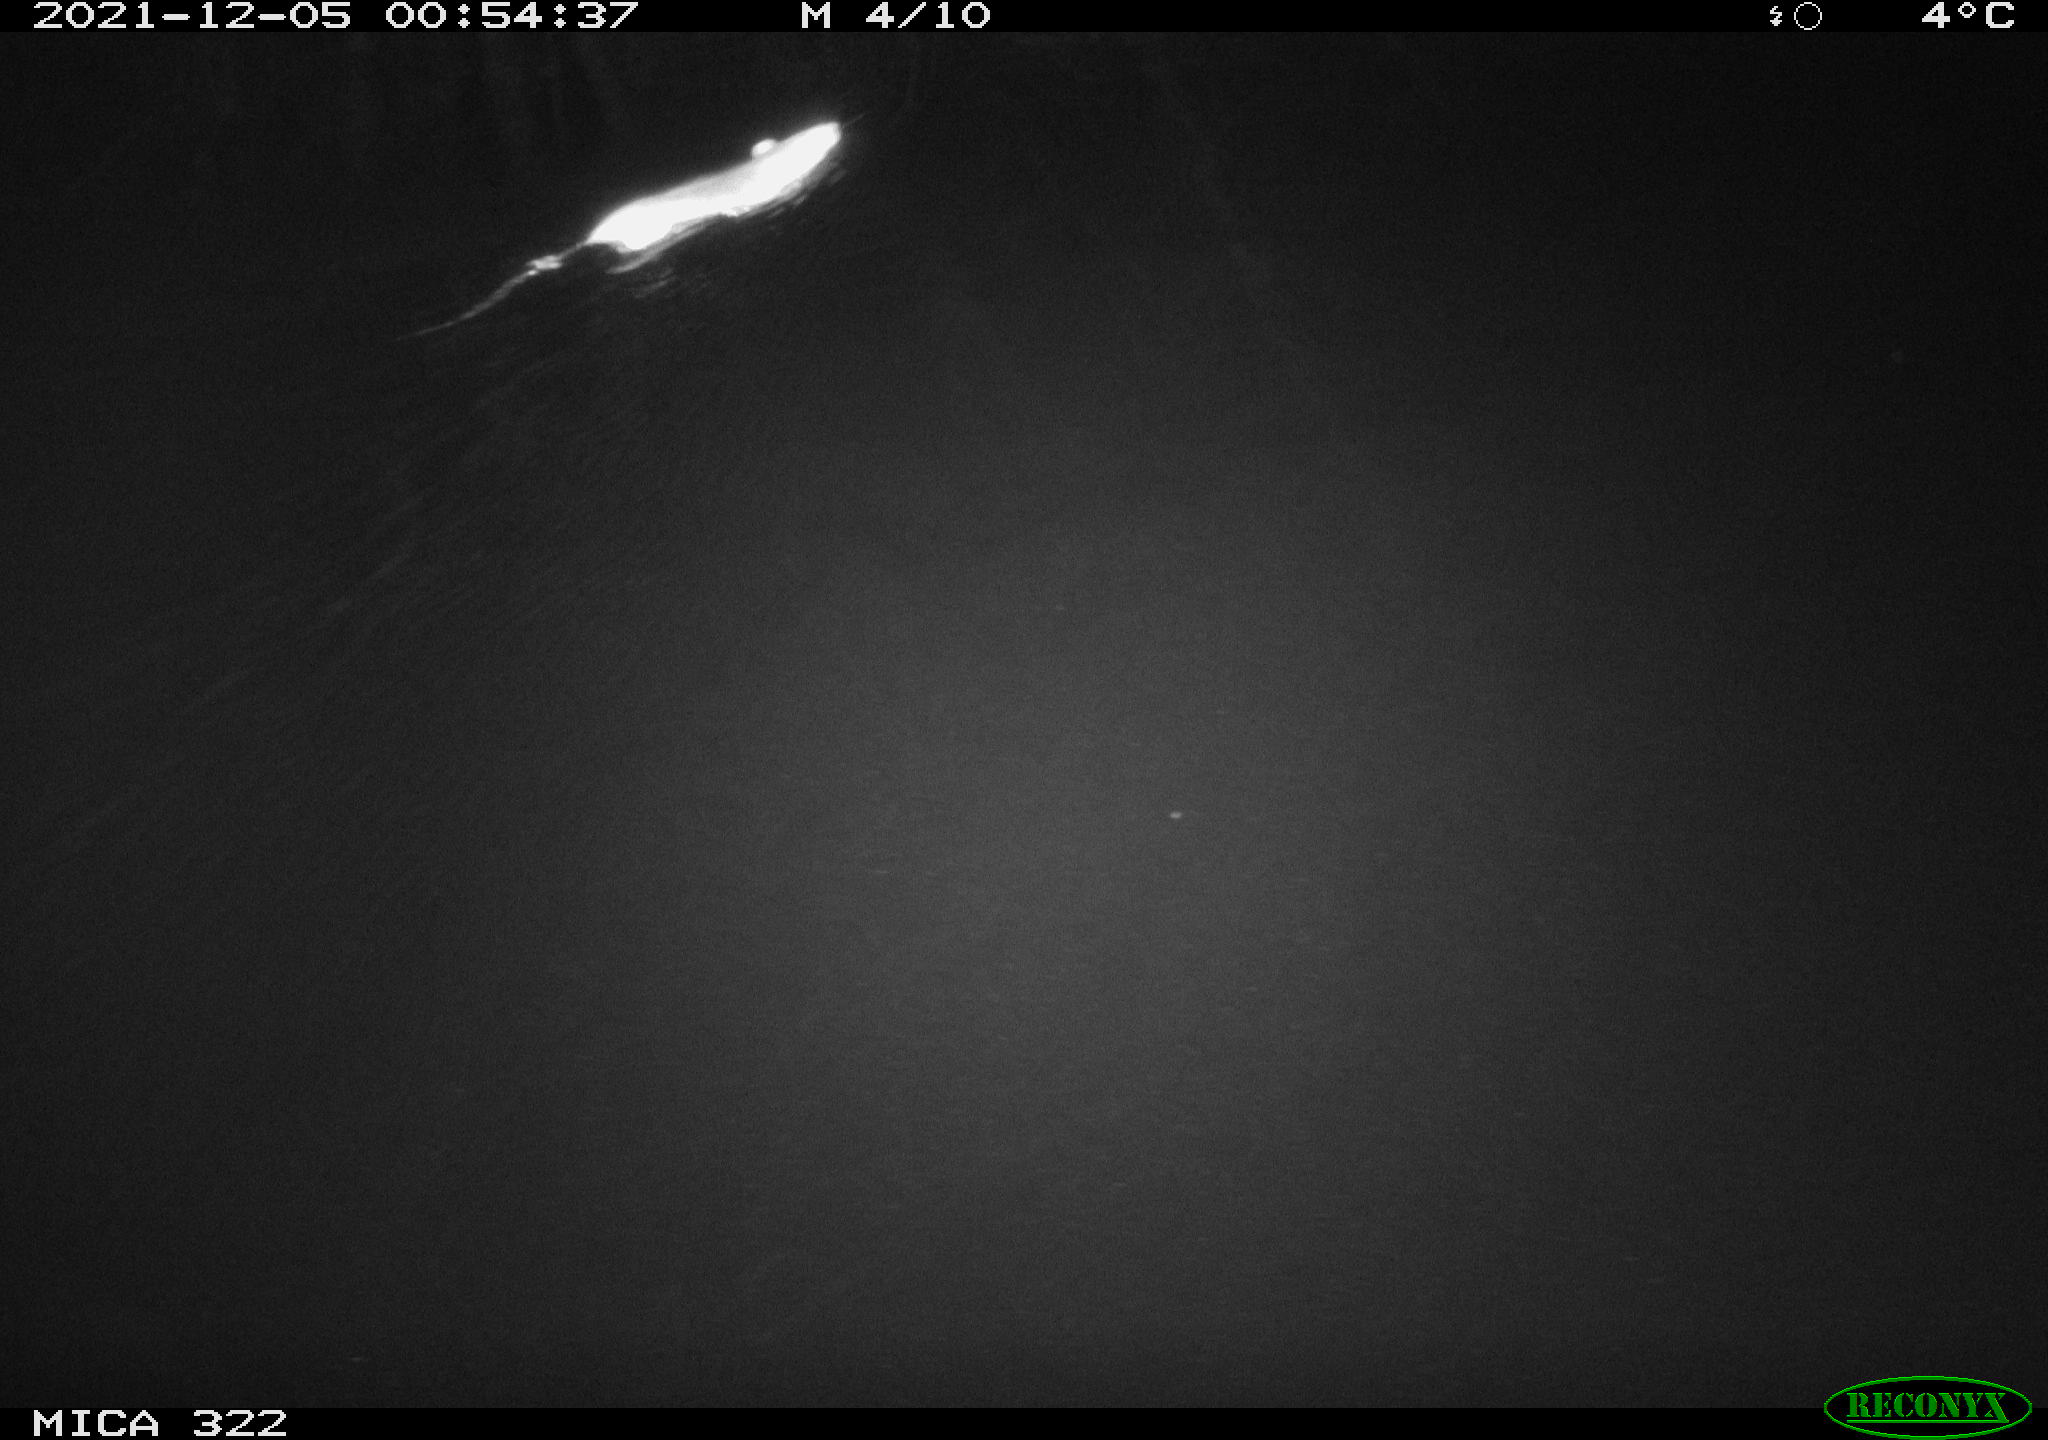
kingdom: Animalia
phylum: Chordata
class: Mammalia
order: Rodentia
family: Muridae
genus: Rattus
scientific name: Rattus norvegicus
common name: Brown rat
